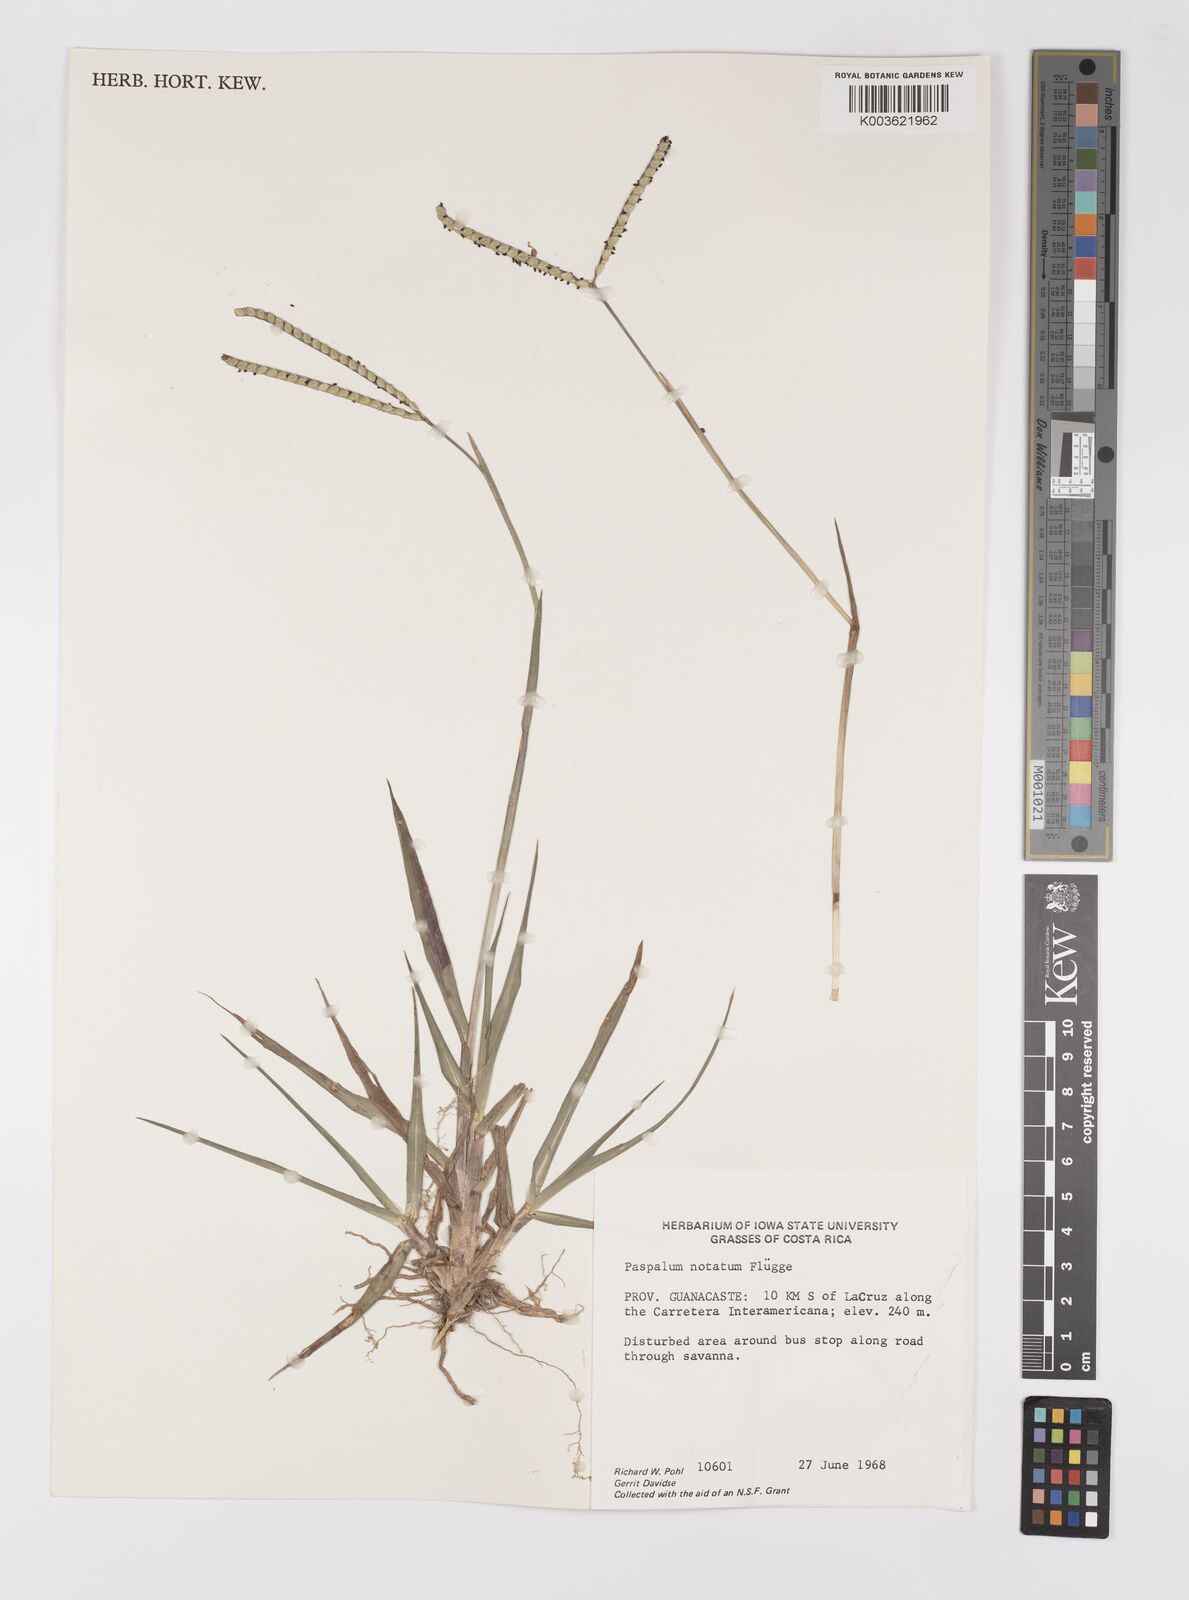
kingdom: Plantae
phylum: Tracheophyta
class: Liliopsida
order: Poales
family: Poaceae
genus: Paspalum
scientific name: Paspalum notatum
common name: Bahiagrass
